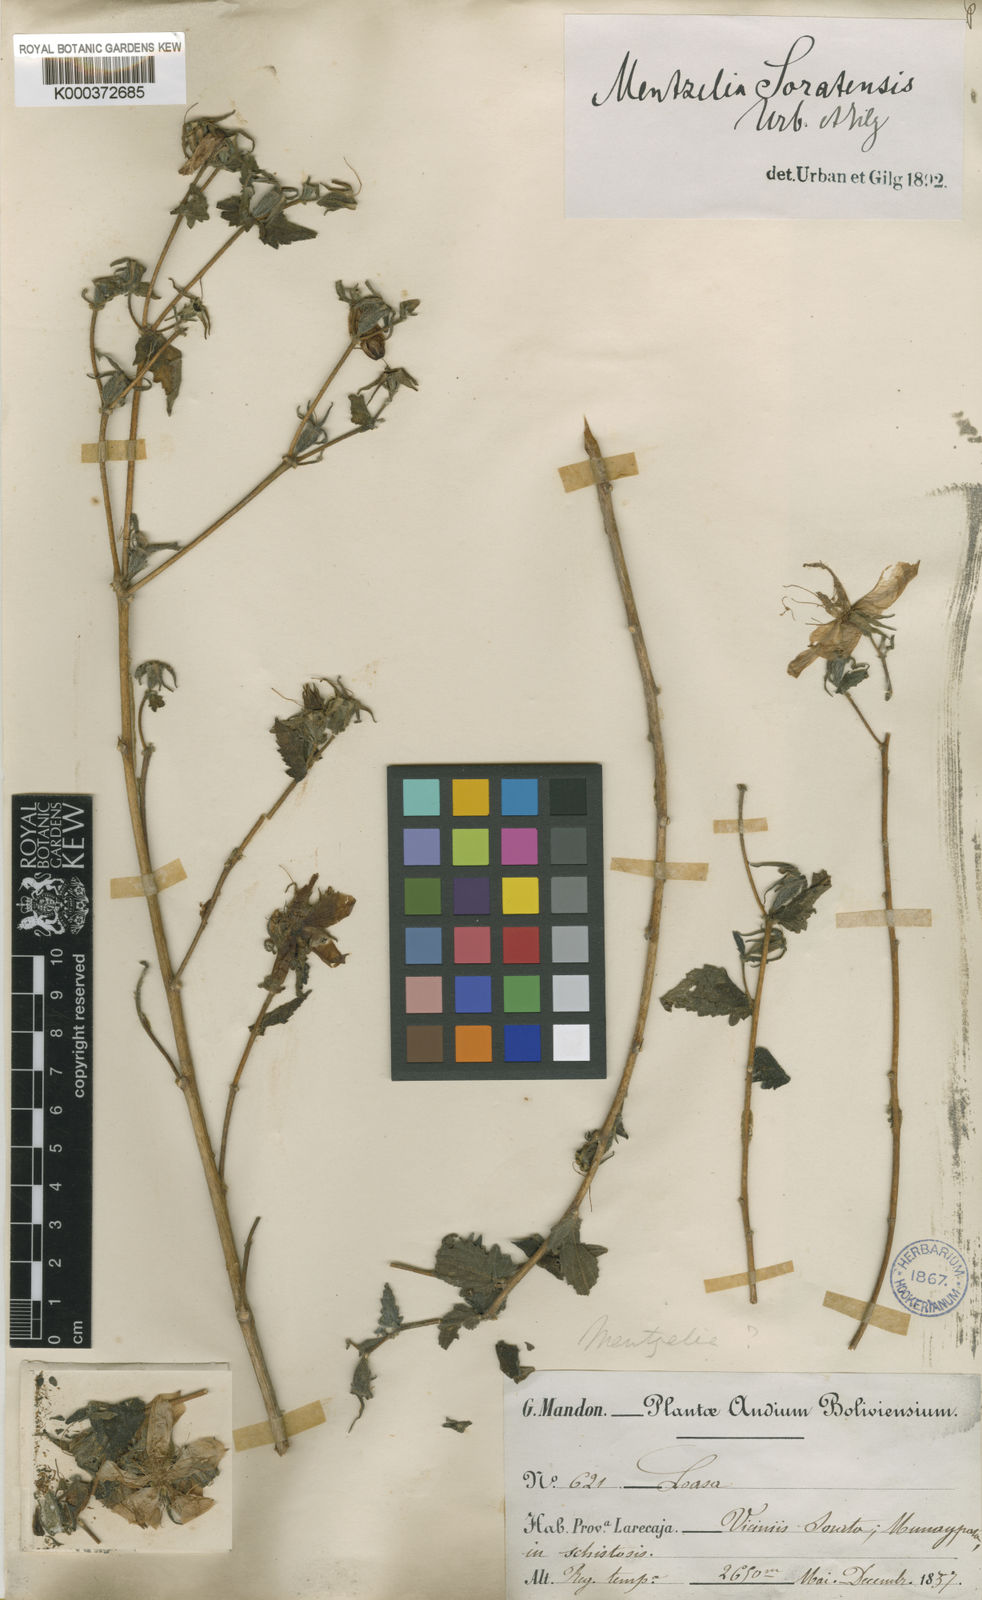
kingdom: Plantae
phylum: Tracheophyta
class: Magnoliopsida
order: Cornales
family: Loasaceae
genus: Mentzelia
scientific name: Mentzelia scabra
